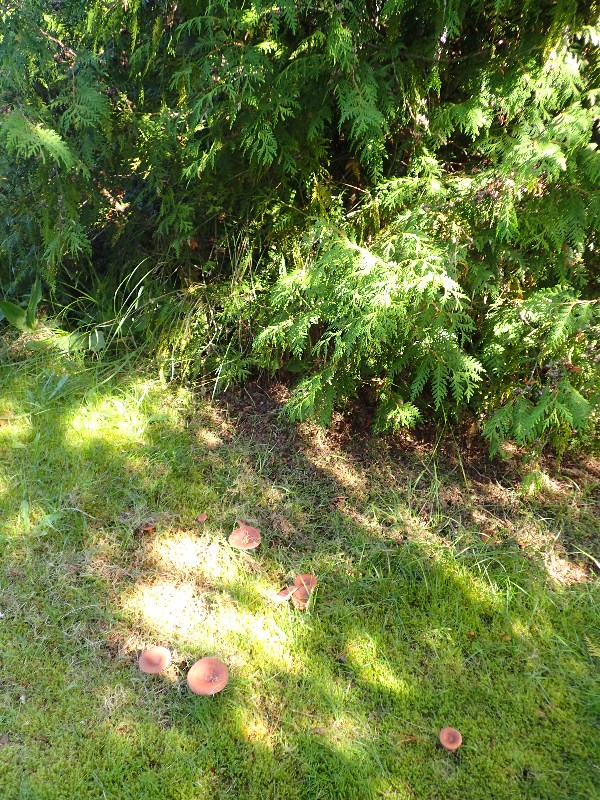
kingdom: Fungi
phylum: Basidiomycota
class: Agaricomycetes
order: Russulales
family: Russulaceae
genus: Lactarius
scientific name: Lactarius rufus
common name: rødbrun mælkehat
